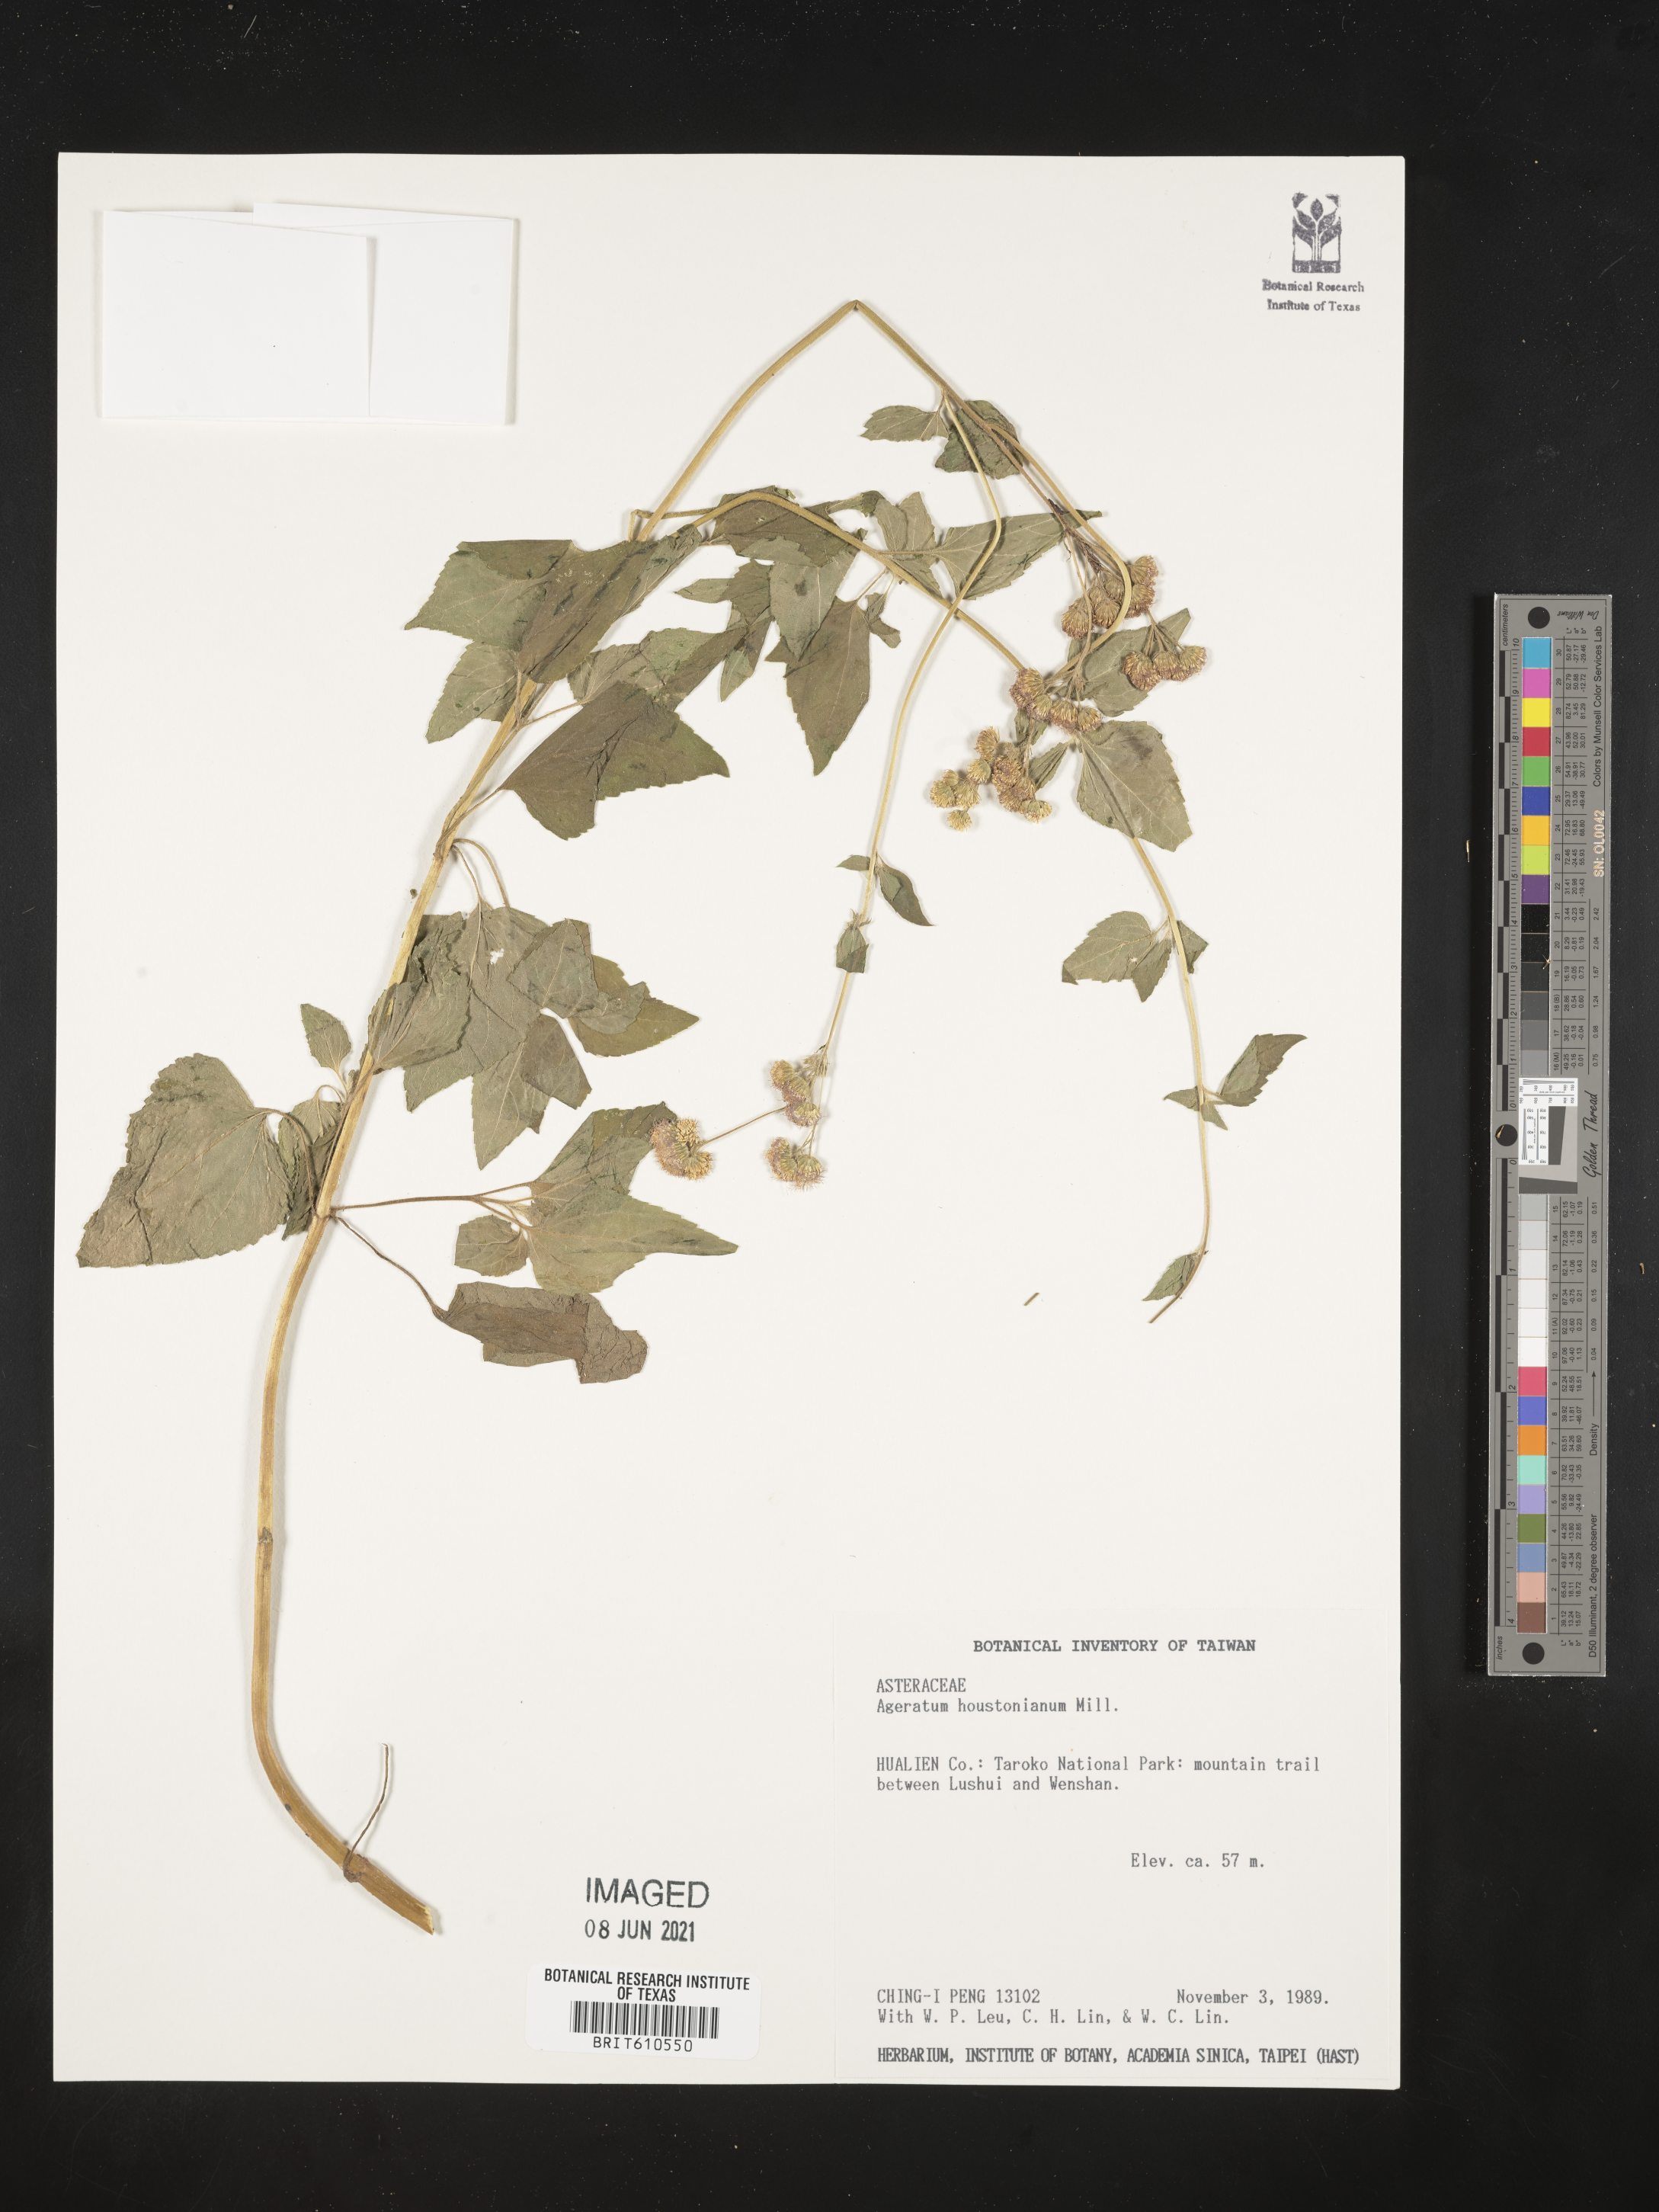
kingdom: Plantae
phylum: Tracheophyta
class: Magnoliopsida
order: Asterales
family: Asteraceae
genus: Ageratum
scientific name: Ageratum houstonianum
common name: Bluemink
